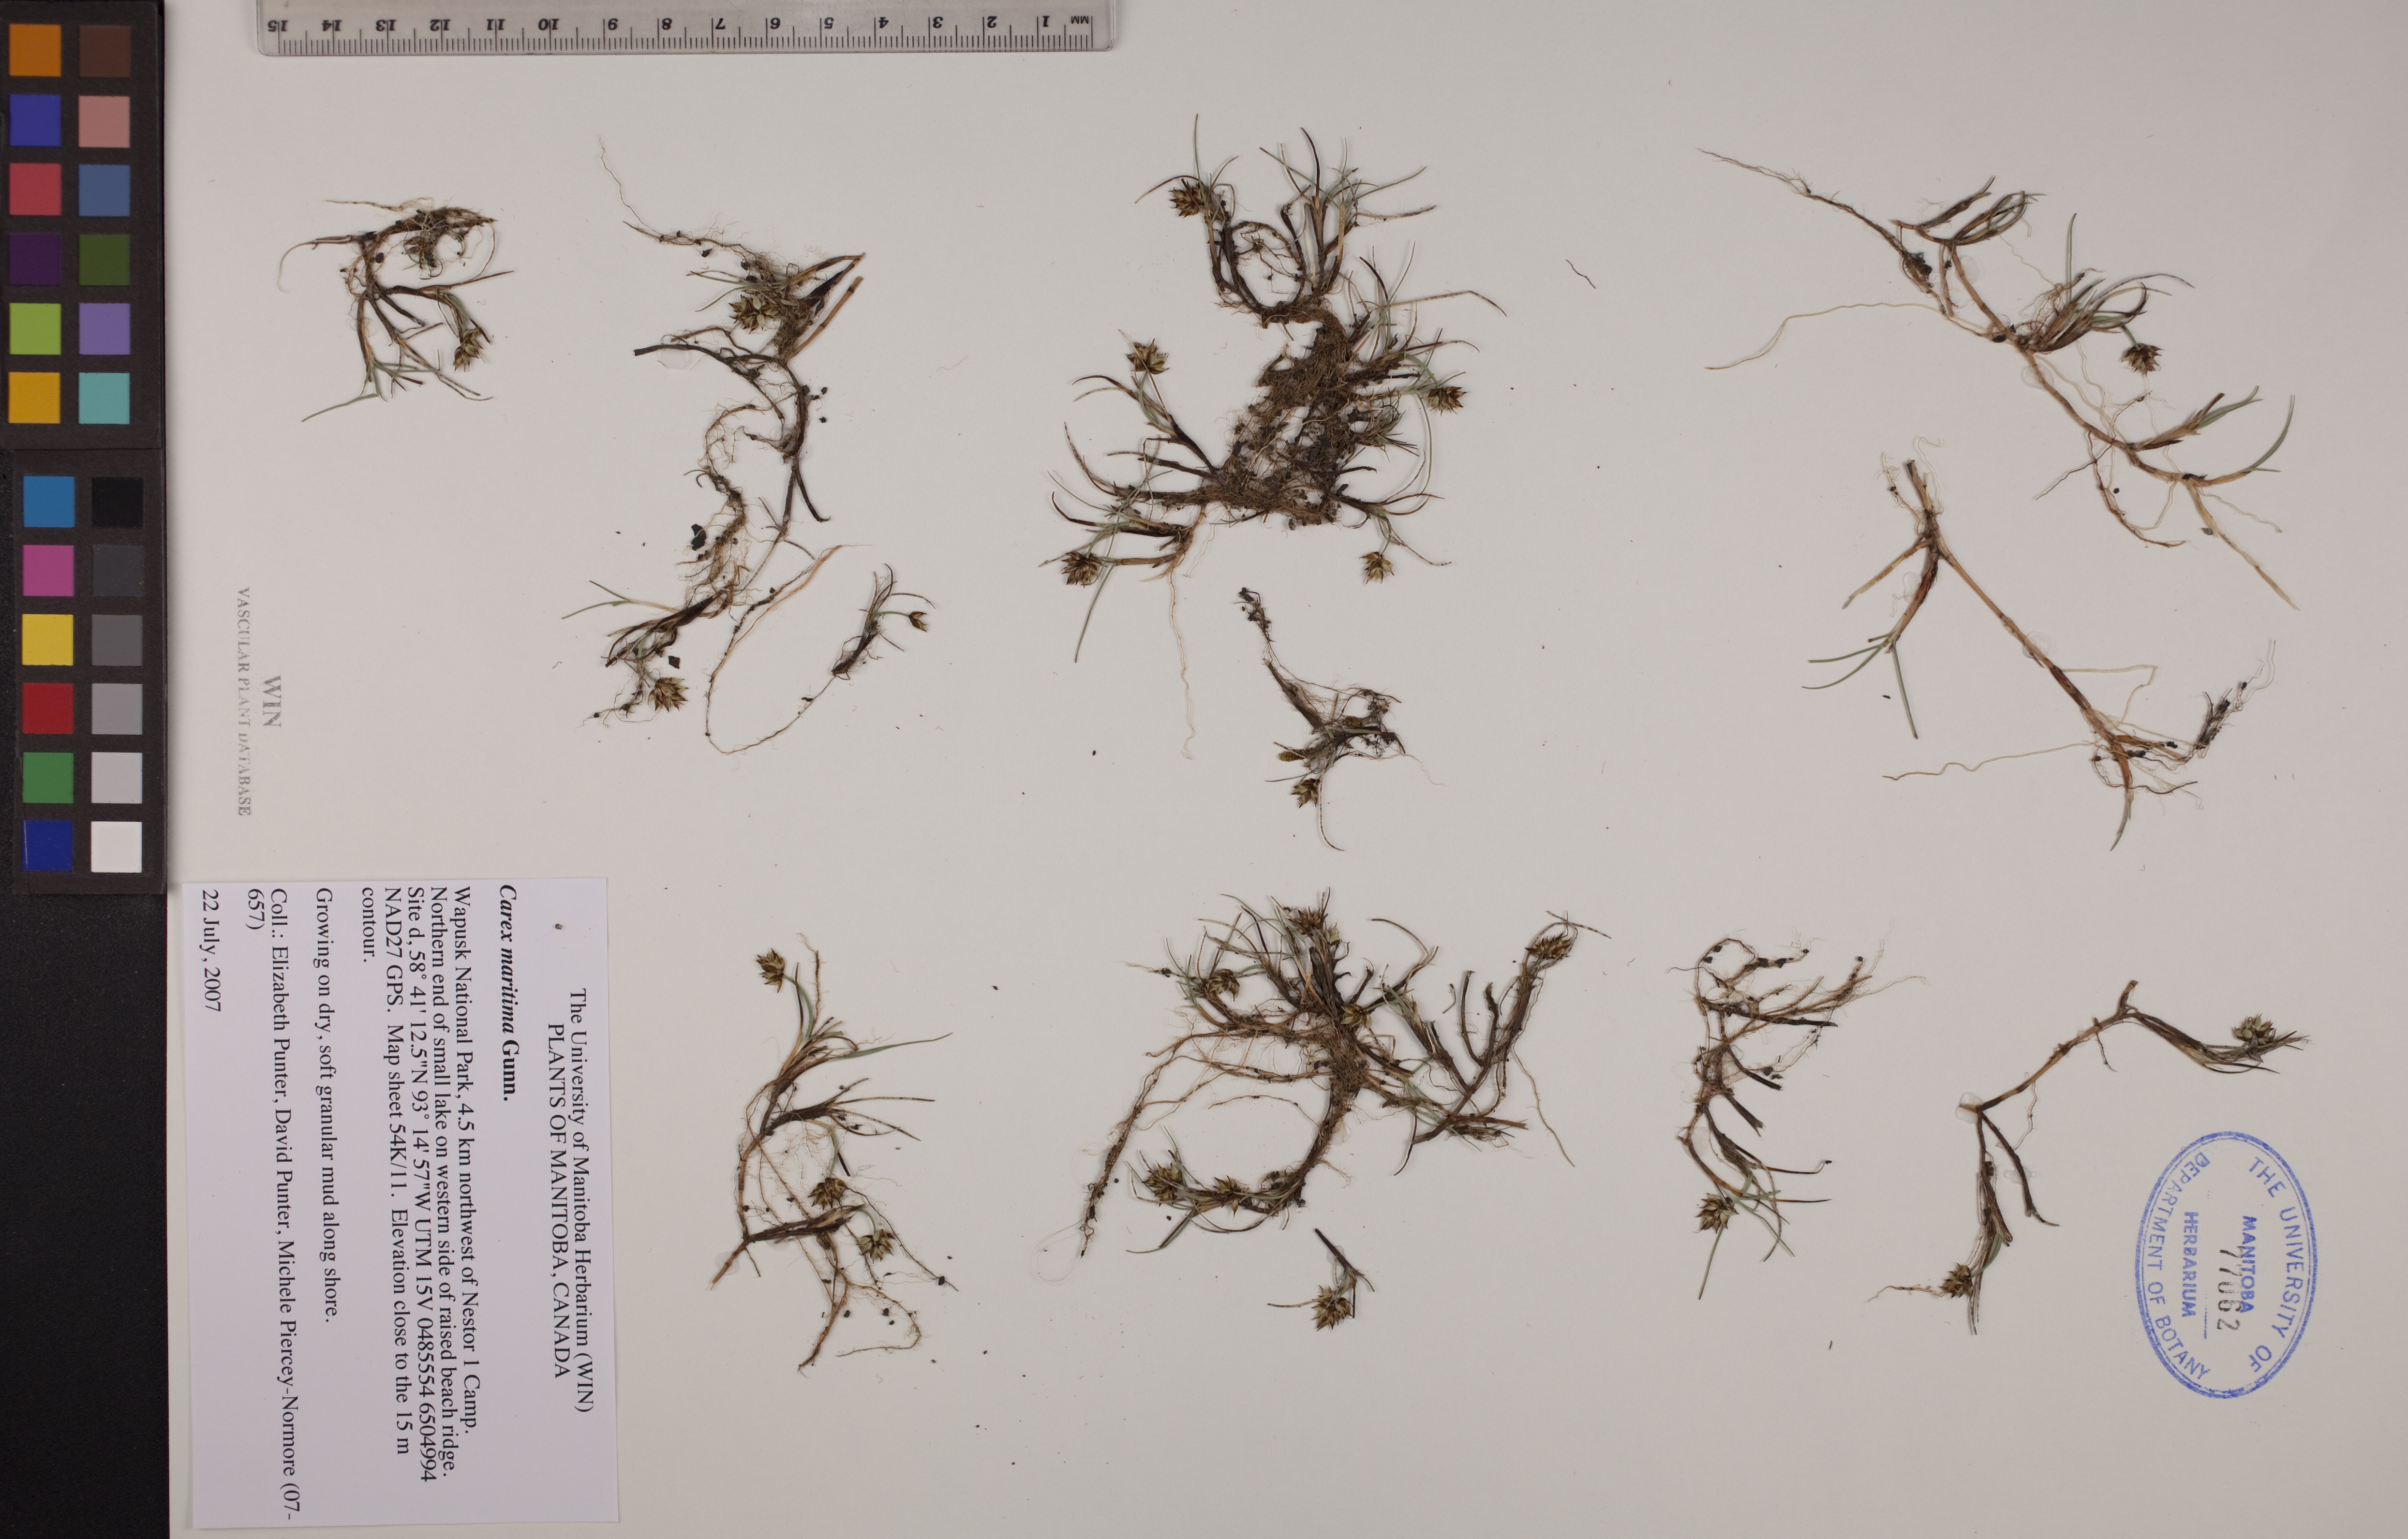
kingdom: Plantae
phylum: Tracheophyta
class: Liliopsida
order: Poales
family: Cyperaceae
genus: Carex
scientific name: Carex maritima
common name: Curved sedge
